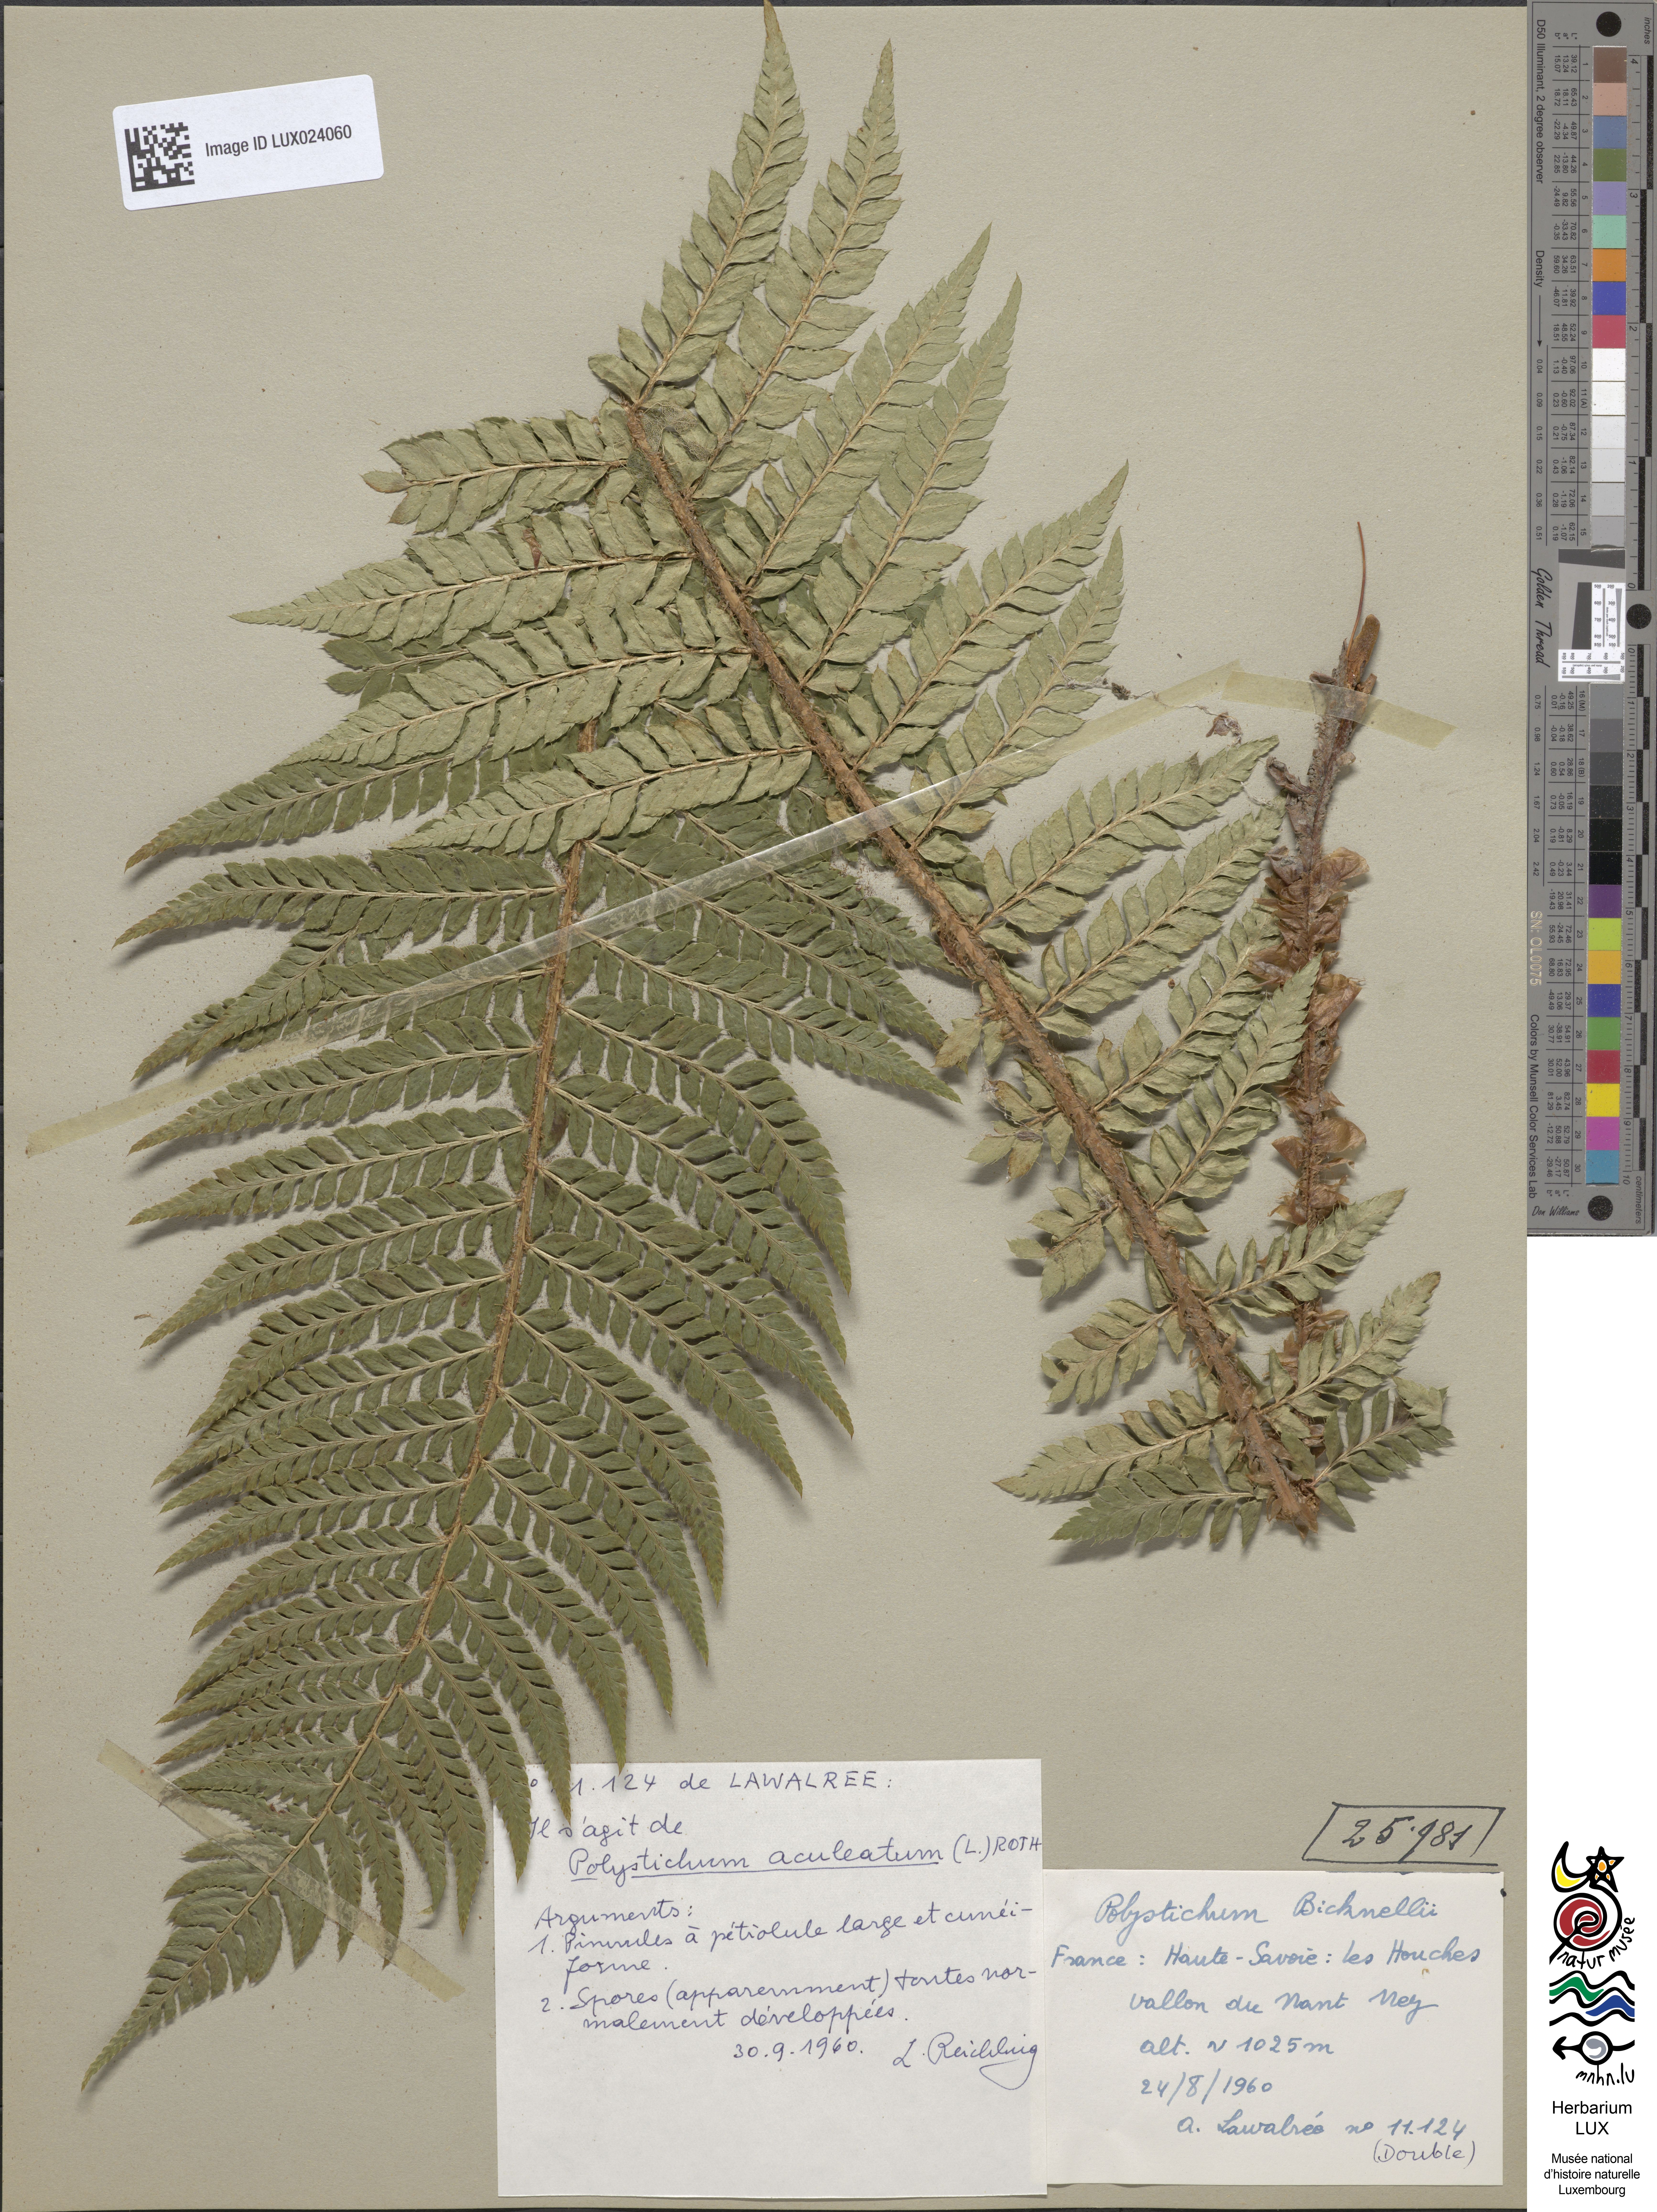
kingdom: Plantae
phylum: Tracheophyta
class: Polypodiopsida
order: Polypodiales
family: Dryopteridaceae
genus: Polystichum
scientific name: Polystichum aculeatum
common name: Hard shield-fern
